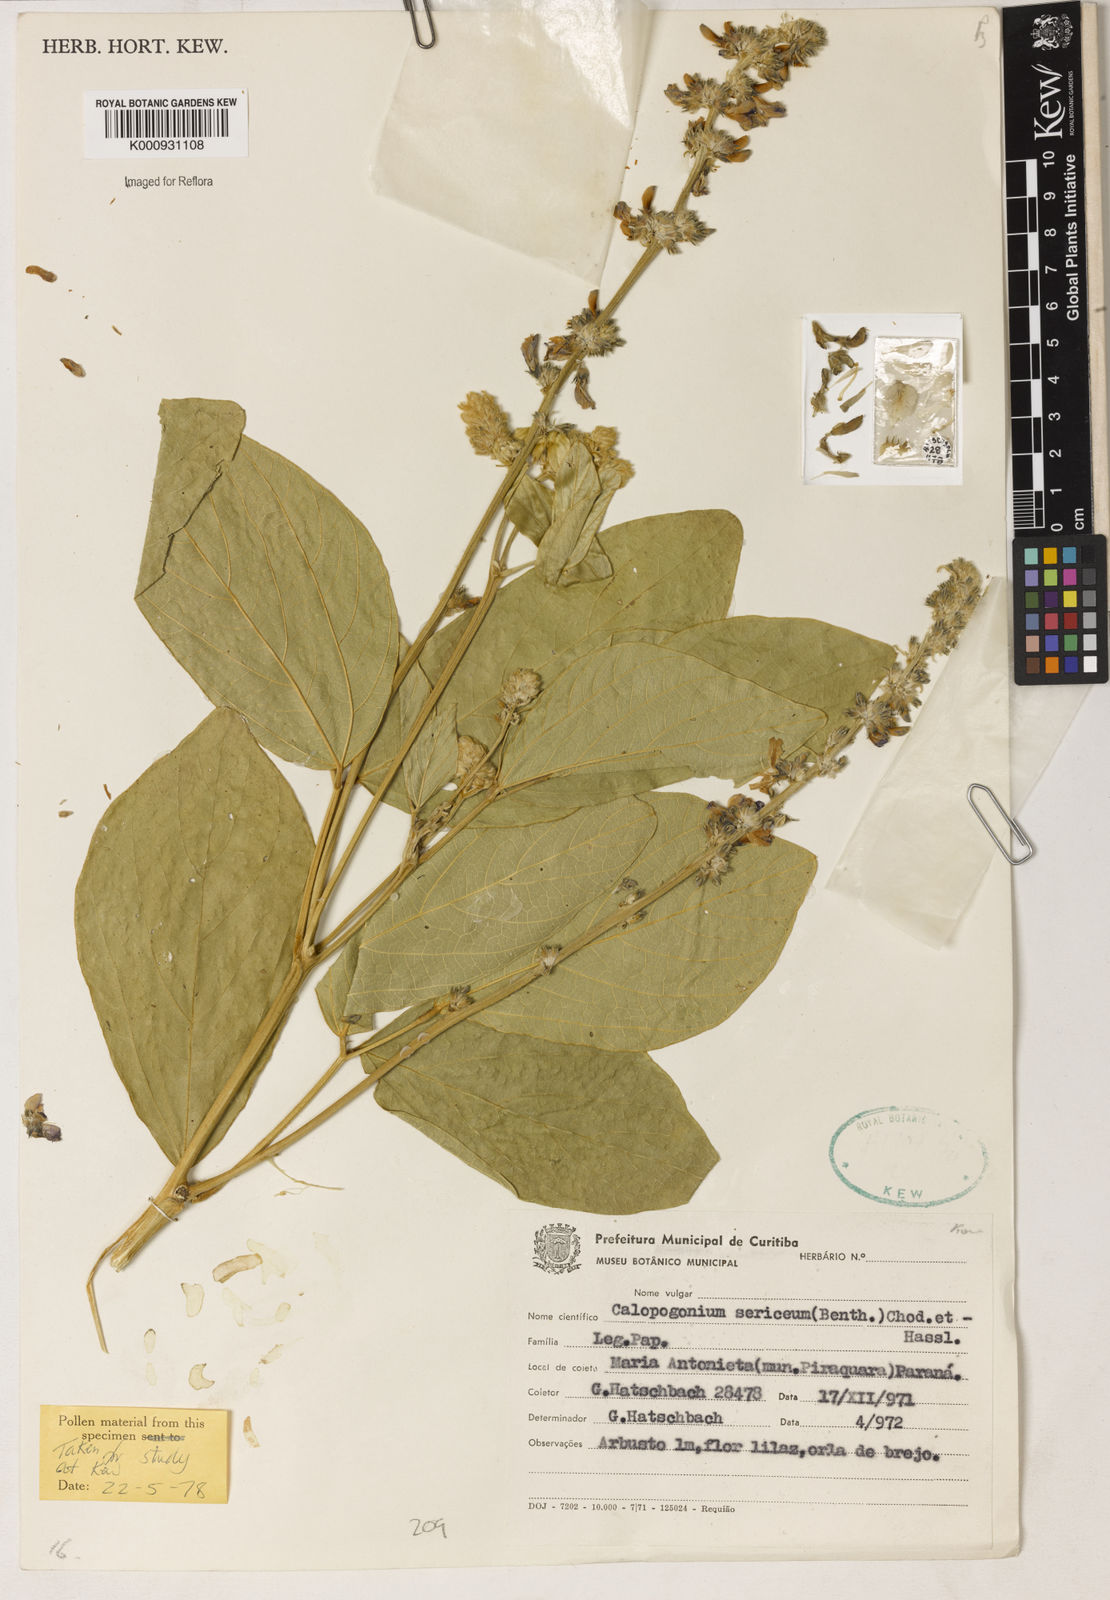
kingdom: Plantae
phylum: Tracheophyta
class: Magnoliopsida
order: Fabales
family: Fabaceae
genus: Calopogonium
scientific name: Calopogonium sericeum
